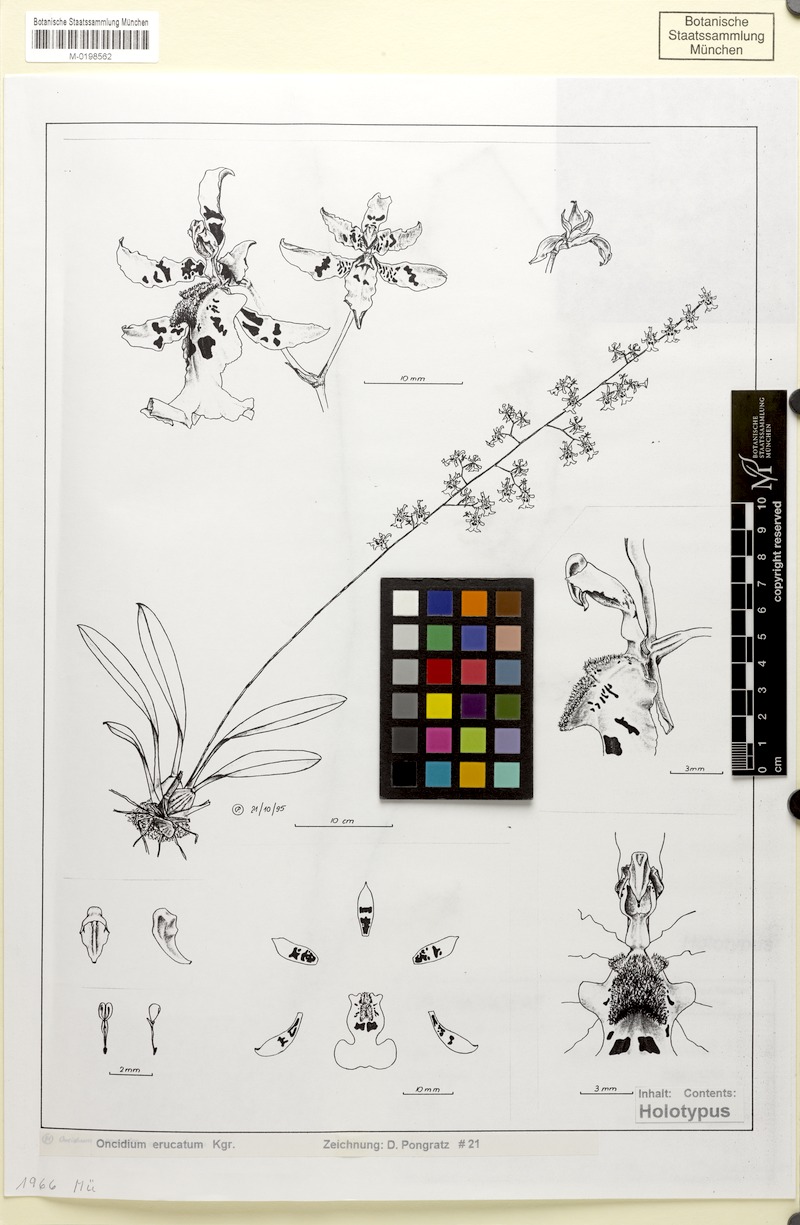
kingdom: Plantae
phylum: Tracheophyta
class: Liliopsida
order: Asparagales
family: Orchidaceae
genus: Oncidium
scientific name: Oncidium hapalotyle
